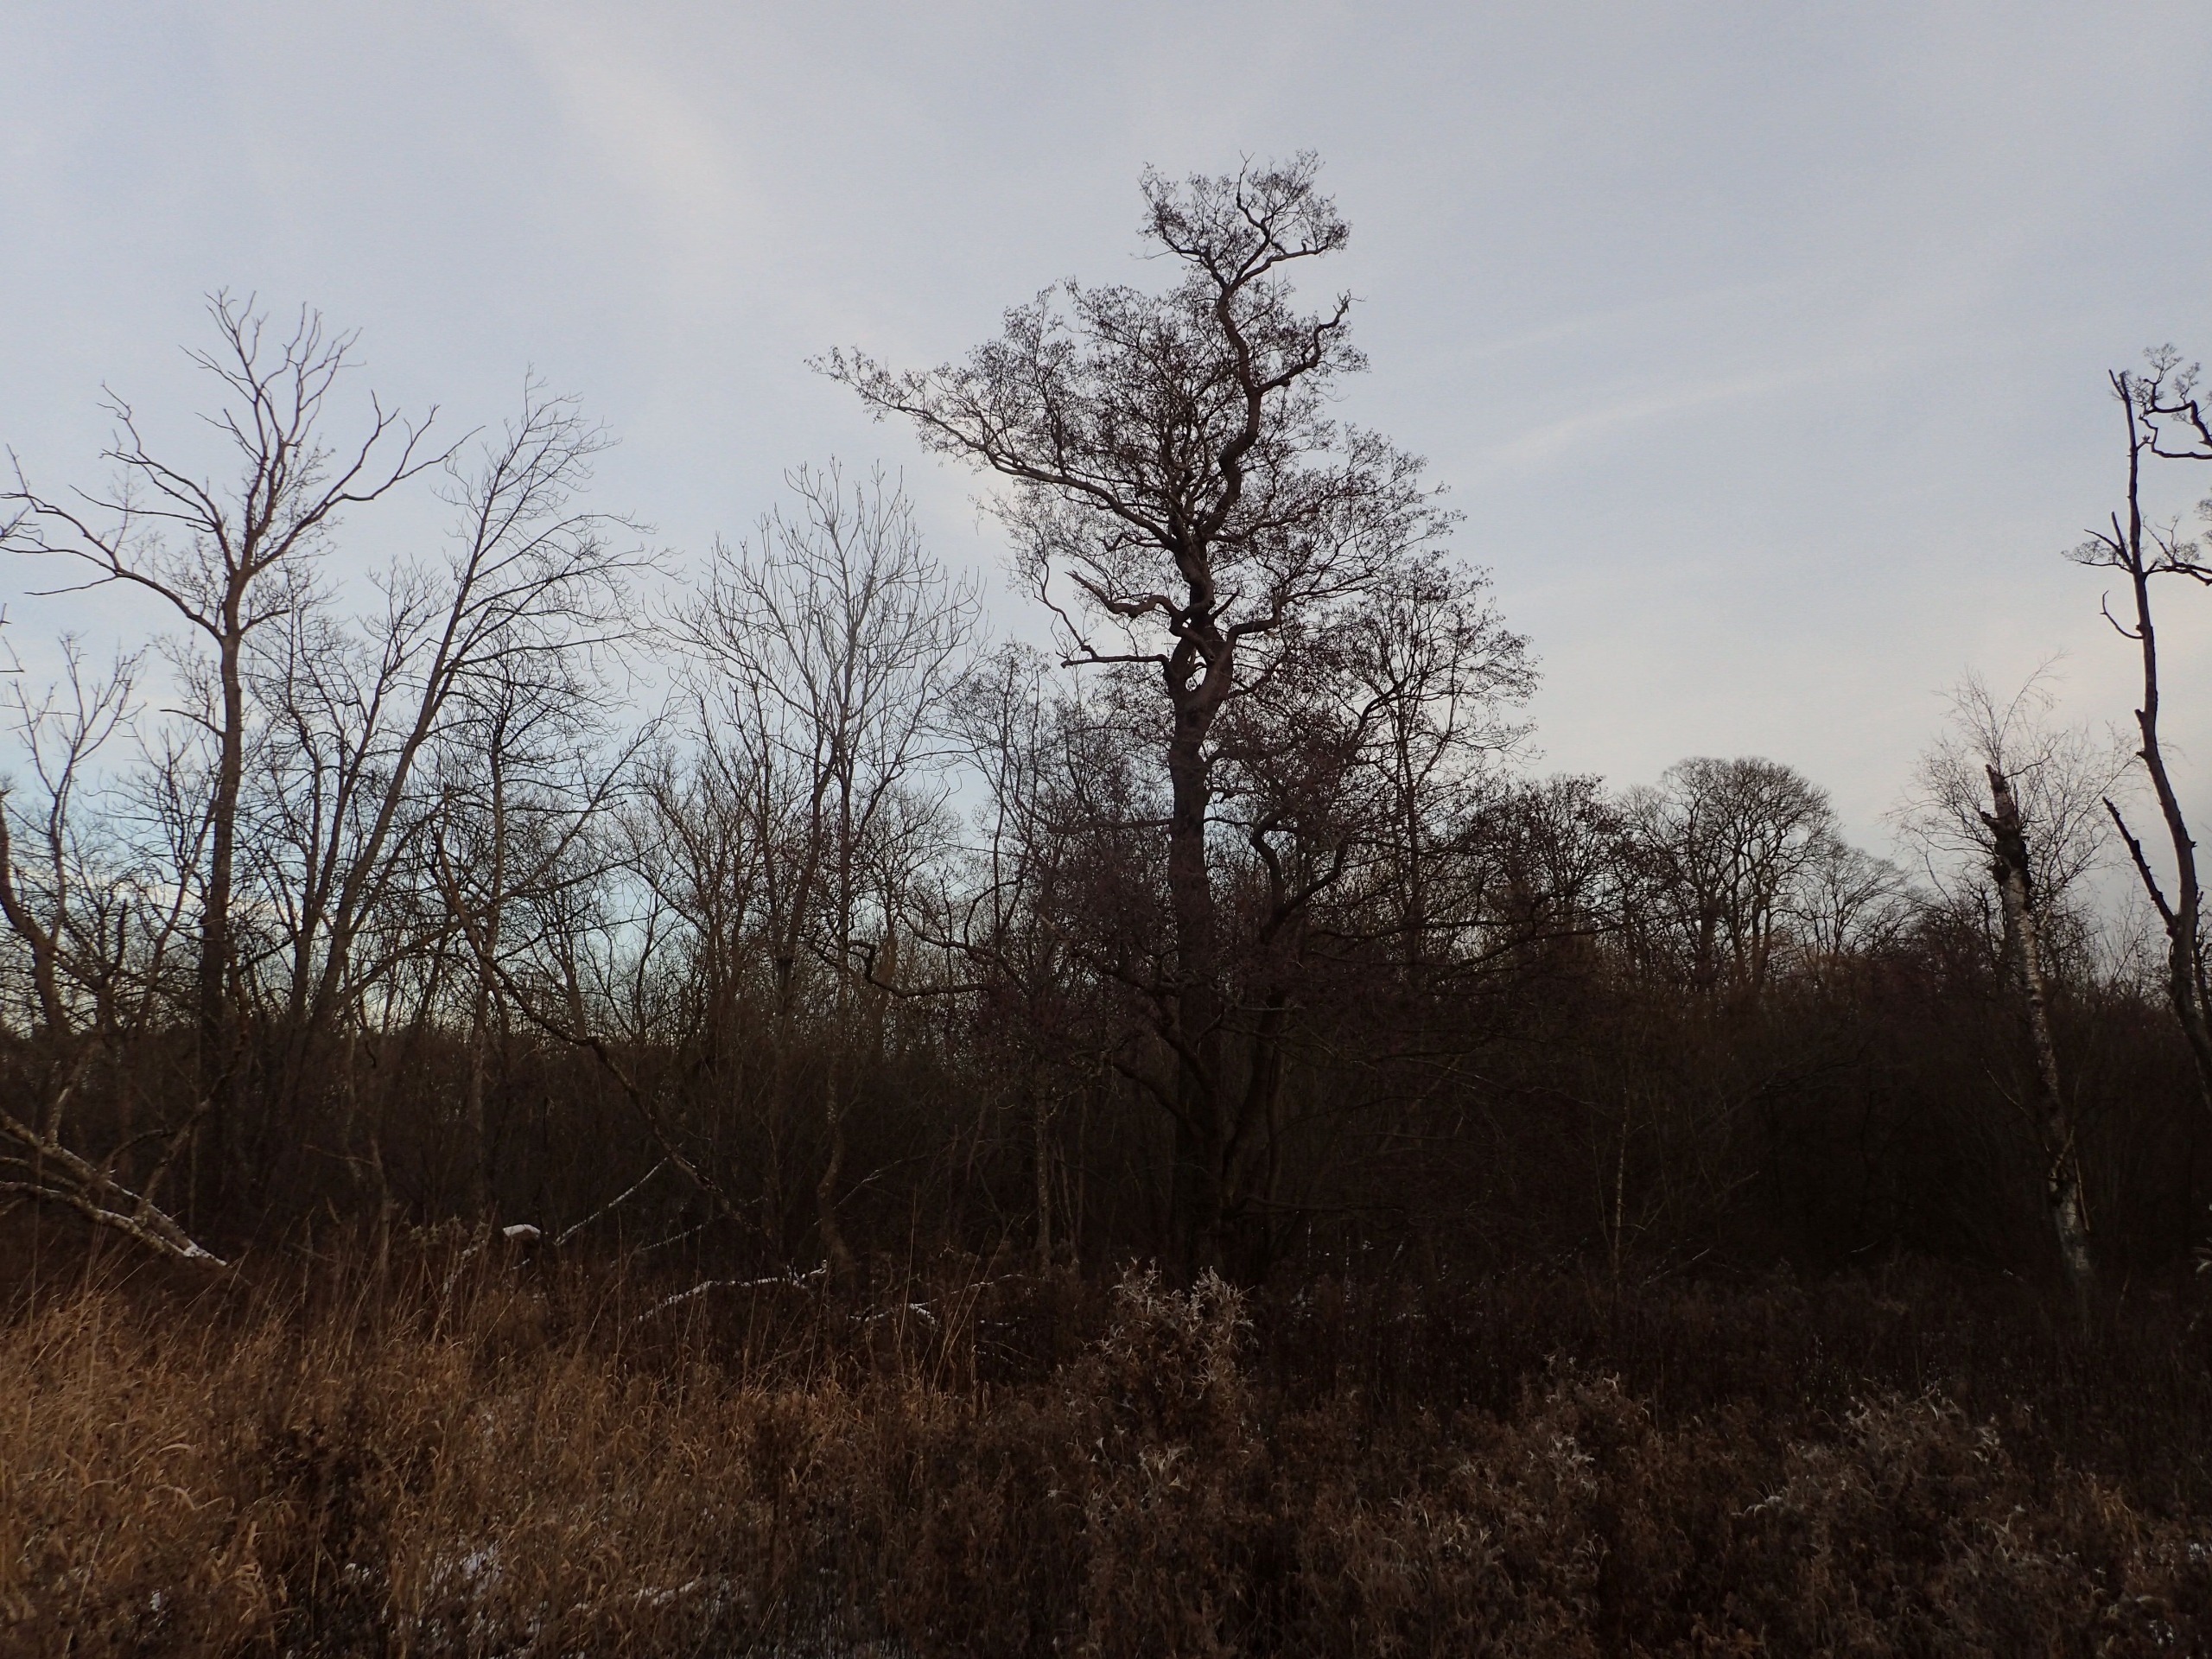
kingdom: Plantae
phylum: Tracheophyta
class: Magnoliopsida
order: Fagales
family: Betulaceae
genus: Alnus
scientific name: Alnus glutinosa
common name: Rød-el
